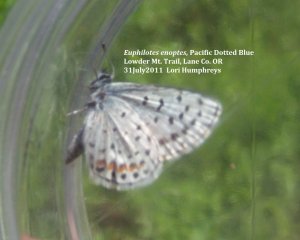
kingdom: Animalia
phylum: Arthropoda
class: Insecta
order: Lepidoptera
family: Lycaenidae
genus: Euphilotes
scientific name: Euphilotes enoptes
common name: Dotted Blue
